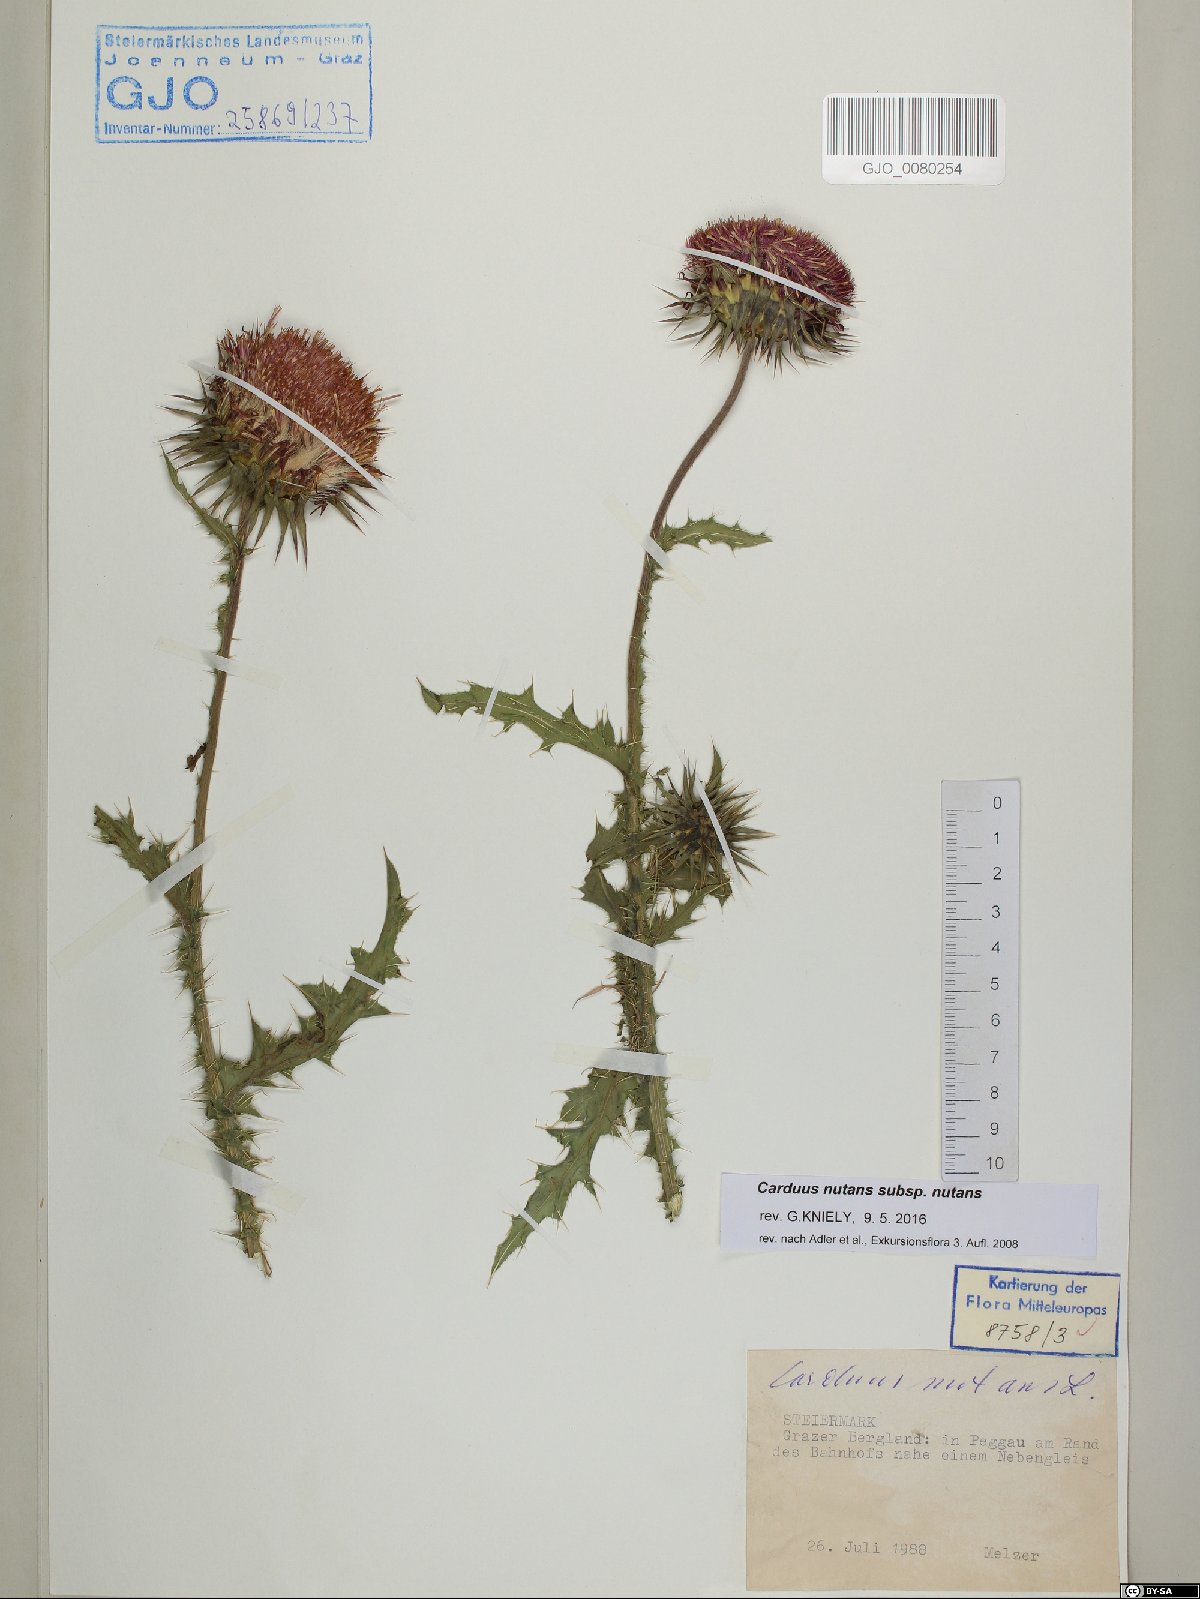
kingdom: Plantae
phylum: Tracheophyta
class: Magnoliopsida
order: Asterales
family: Asteraceae
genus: Carduus
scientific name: Carduus nutans
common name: Musk thistle
